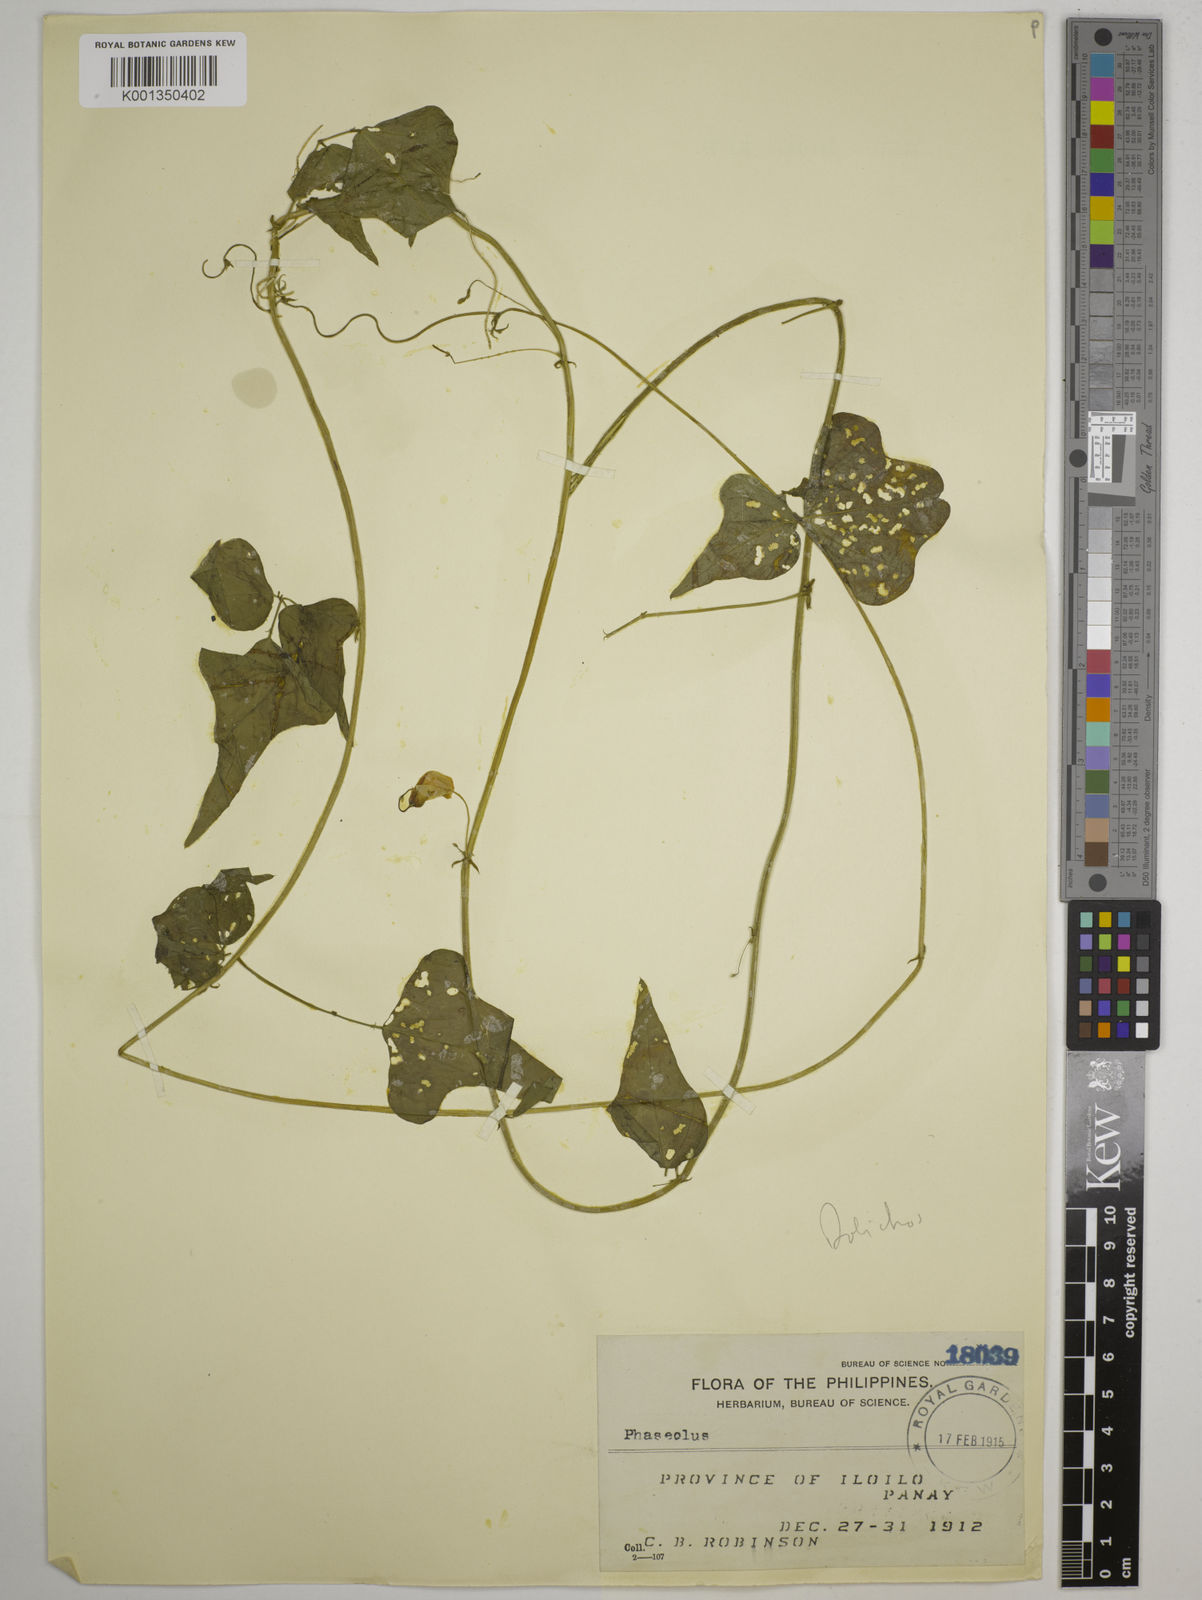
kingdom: Plantae
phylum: Tracheophyta
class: Magnoliopsida
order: Fabales
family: Fabaceae
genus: Dolichos
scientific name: Dolichos
